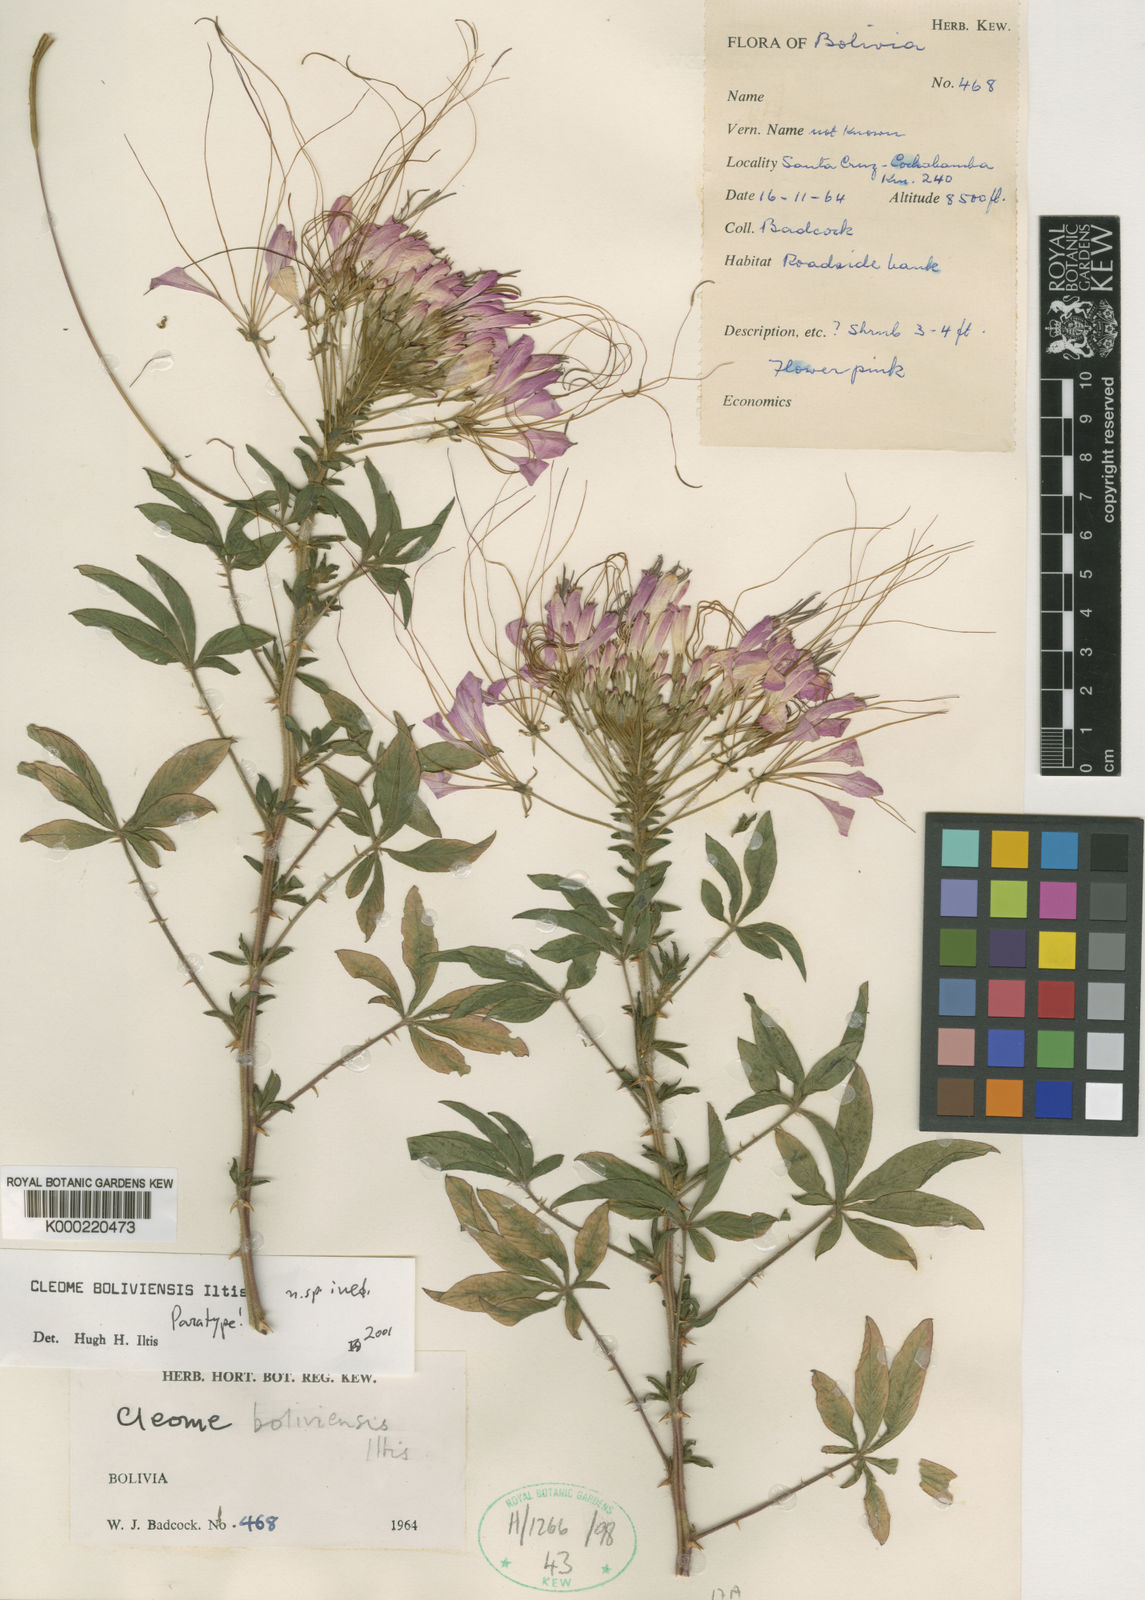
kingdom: Plantae
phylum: Tracheophyta
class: Magnoliopsida
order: Brassicales
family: Cleomaceae
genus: Tarenaya
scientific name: Tarenaya boliviensis
